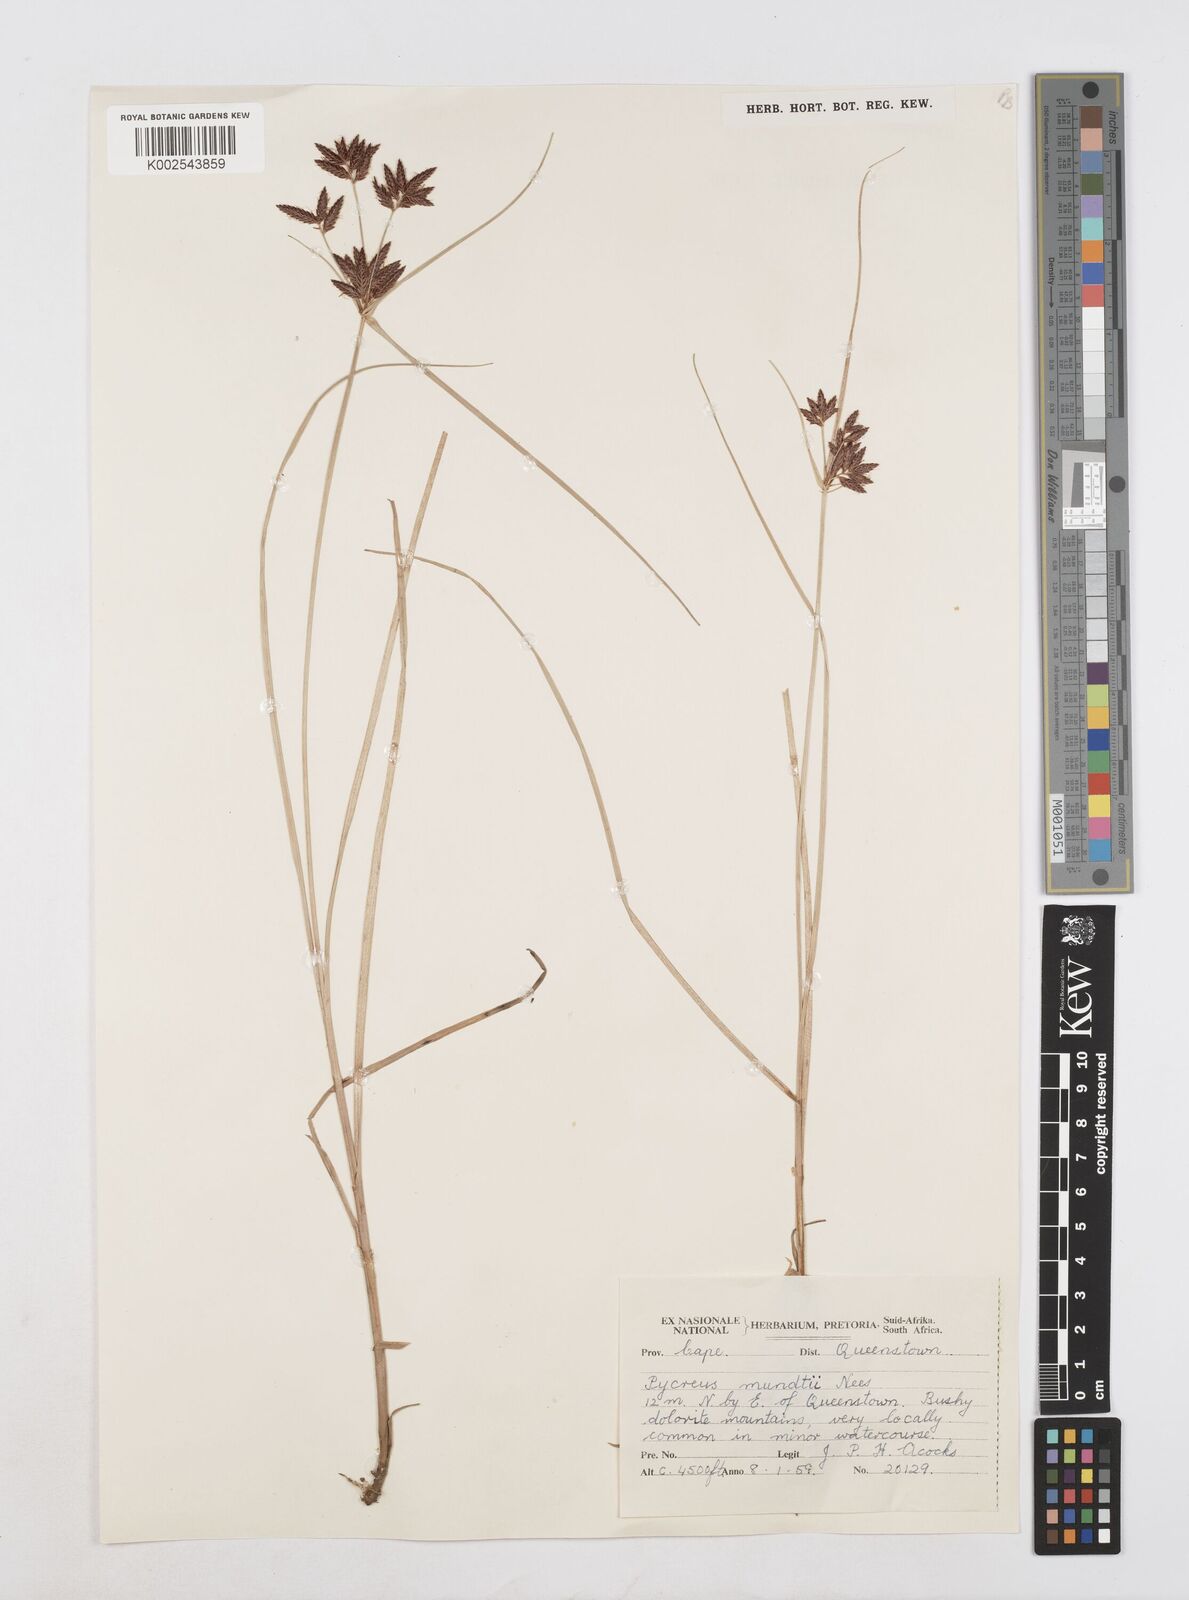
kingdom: Plantae
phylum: Tracheophyta
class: Liliopsida
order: Poales
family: Cyperaceae
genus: Cyperus
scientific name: Cyperus mundii
